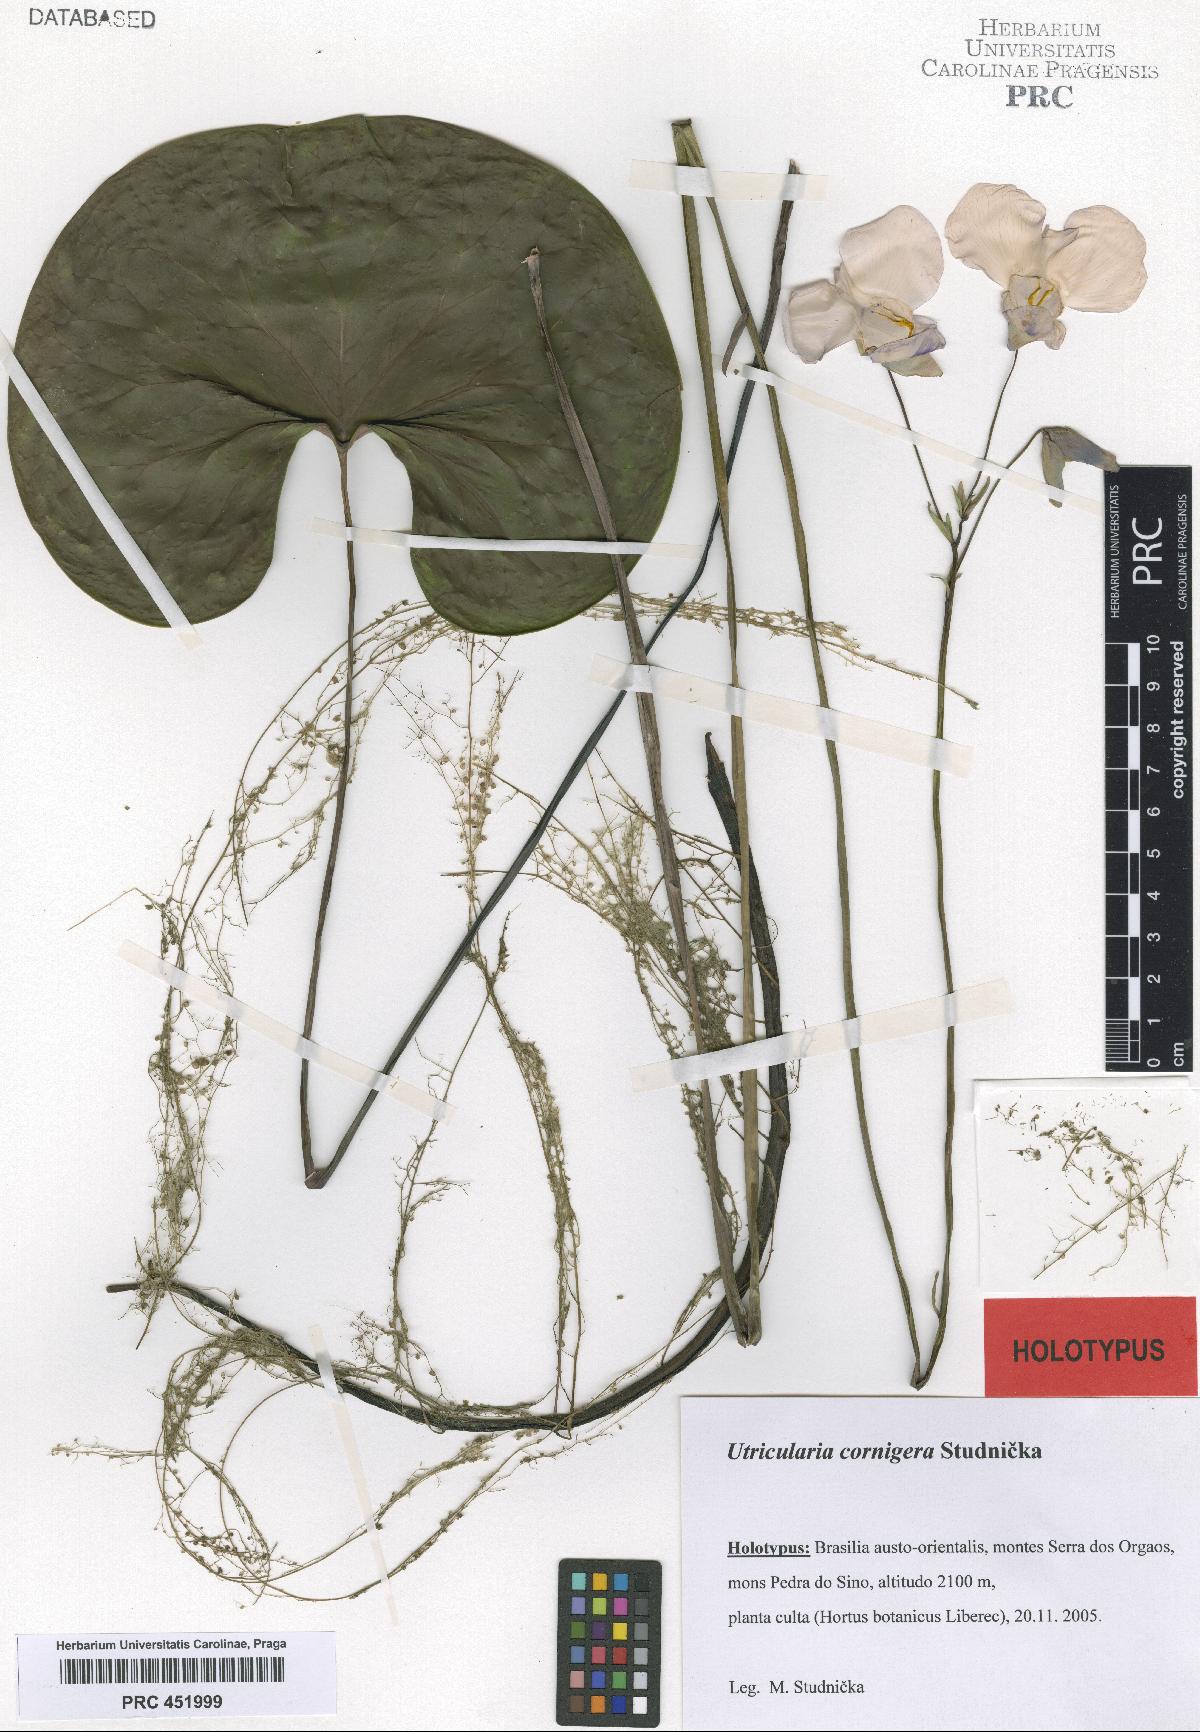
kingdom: Plantae
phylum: Tracheophyta
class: Magnoliopsida
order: Lamiales
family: Lentibulariaceae
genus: Utricularia
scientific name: Utricularia cornigera
